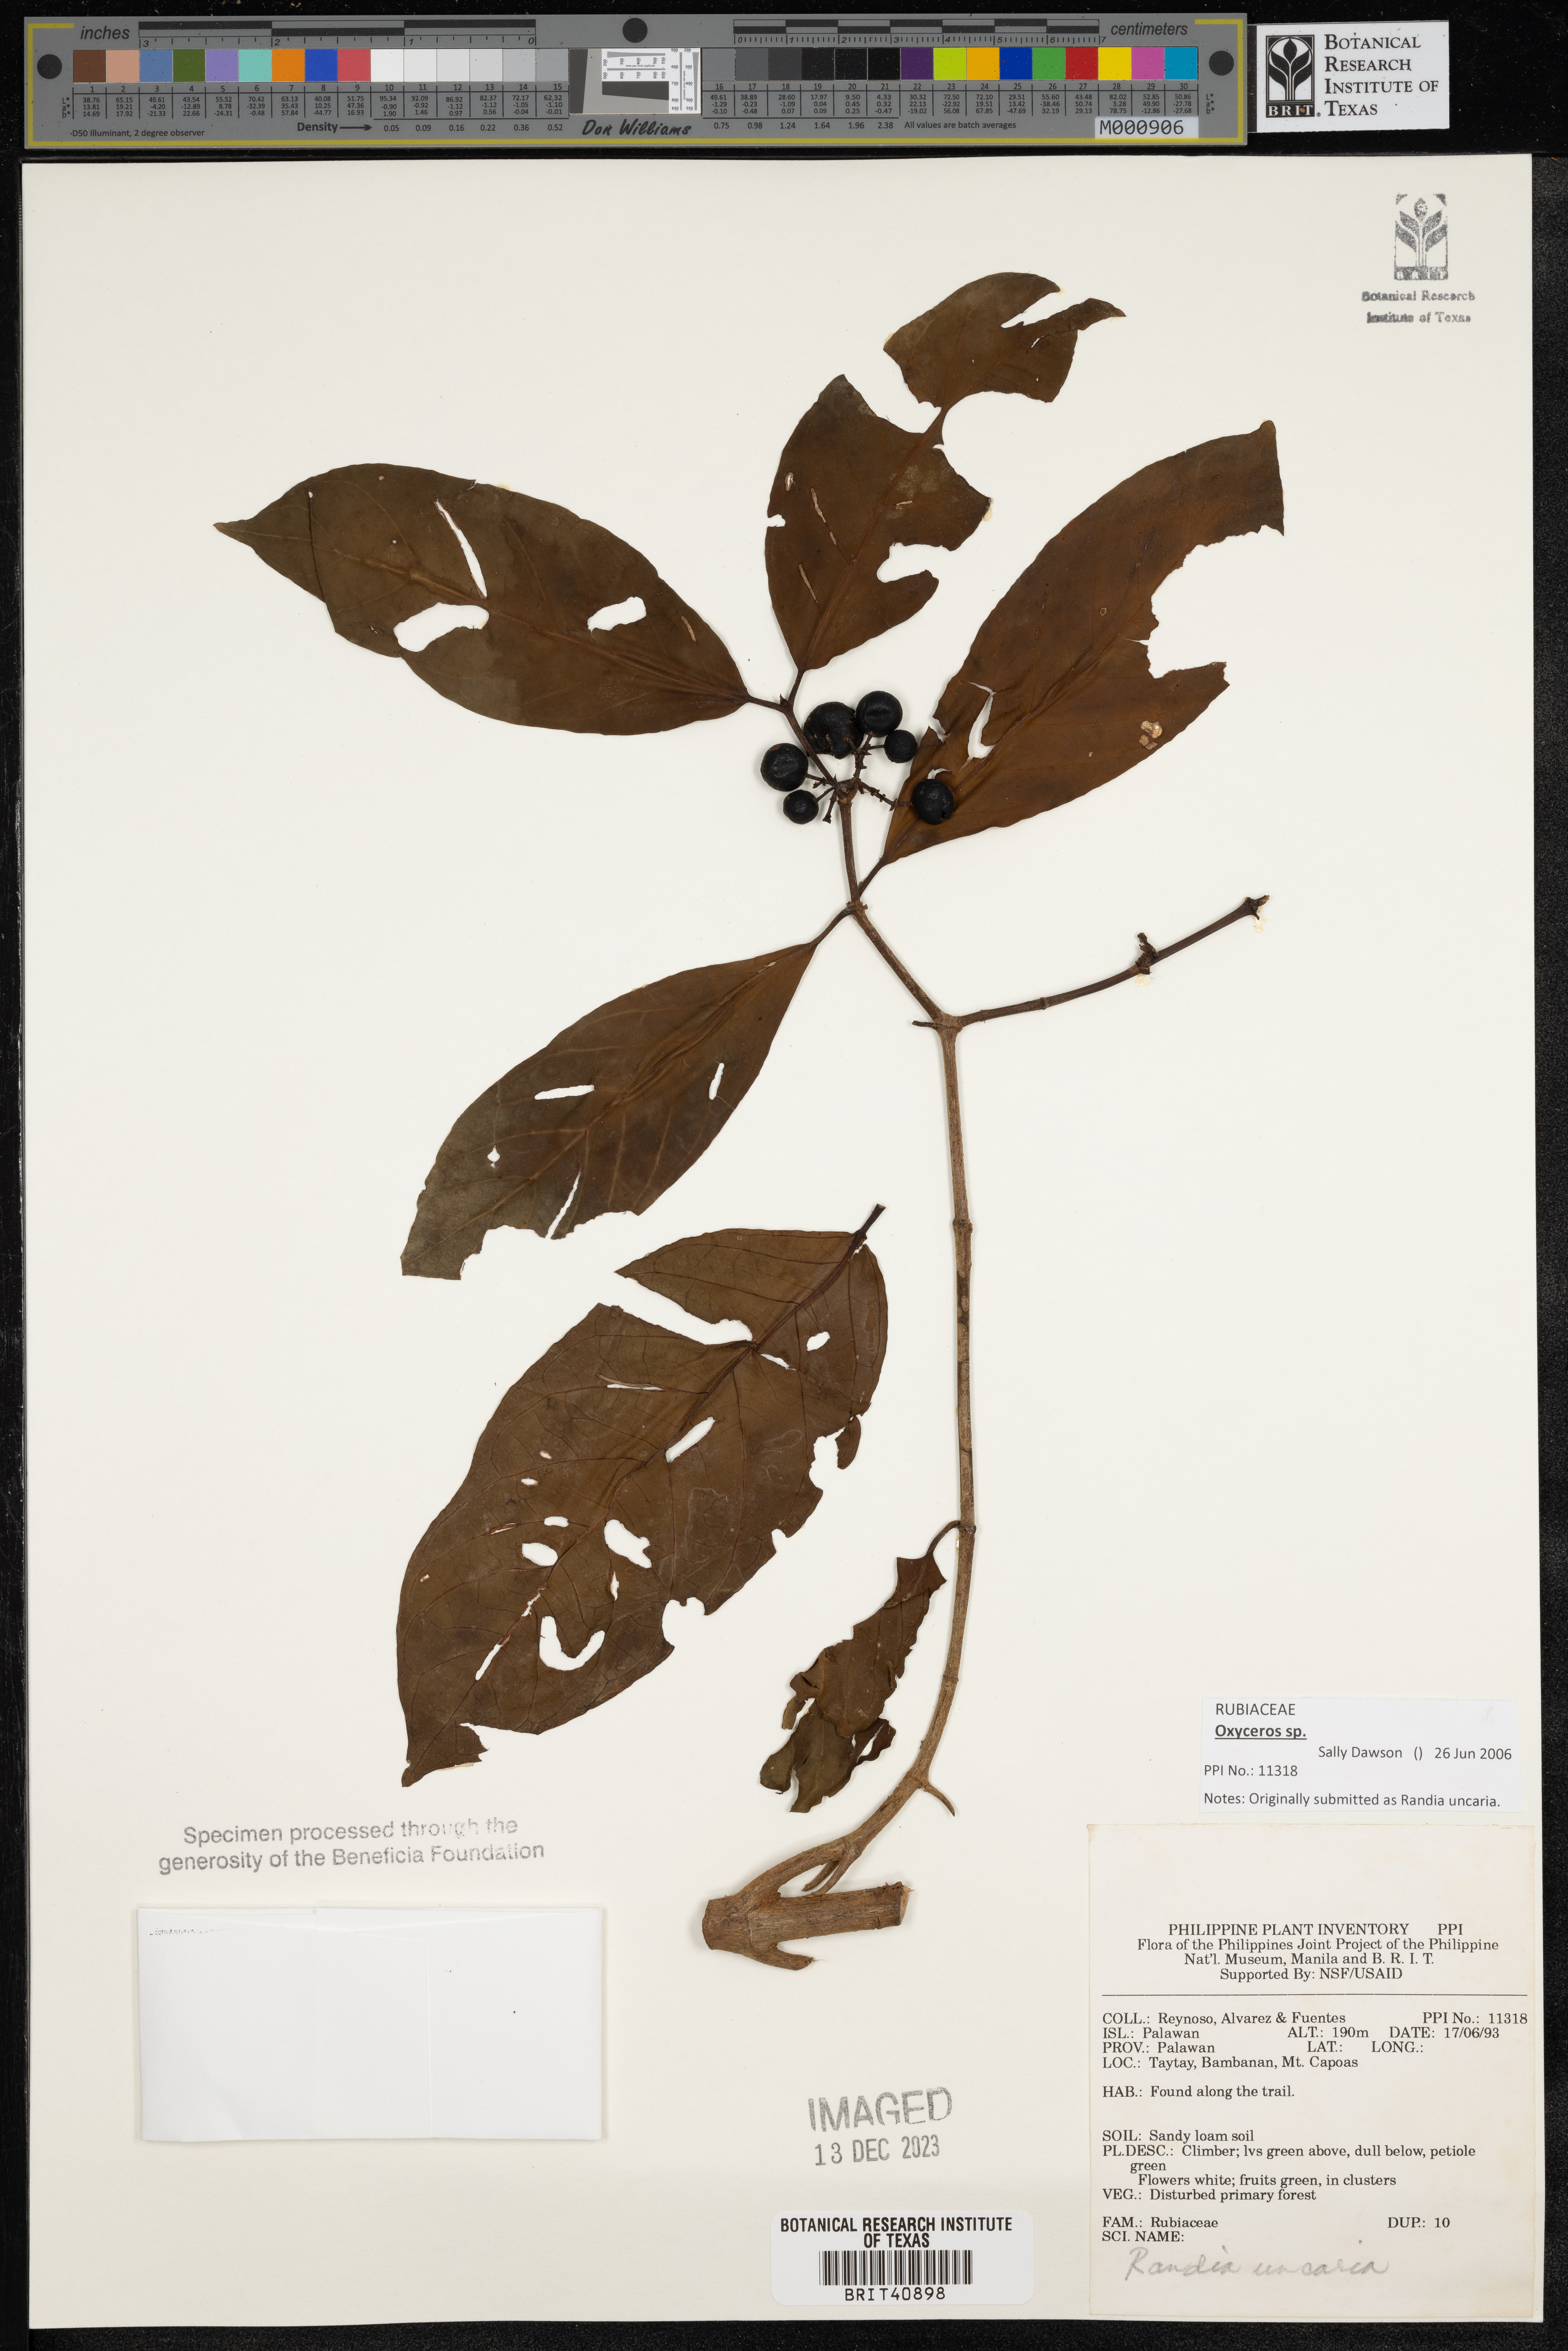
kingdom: Plantae
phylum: Tracheophyta
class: Magnoliopsida
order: Gentianales
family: Rubiaceae
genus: Uncaria
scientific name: Uncaria
